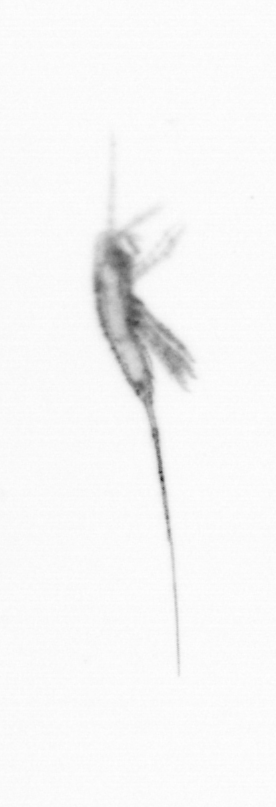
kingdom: Animalia
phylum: Arthropoda
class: Copepoda
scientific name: Copepoda
